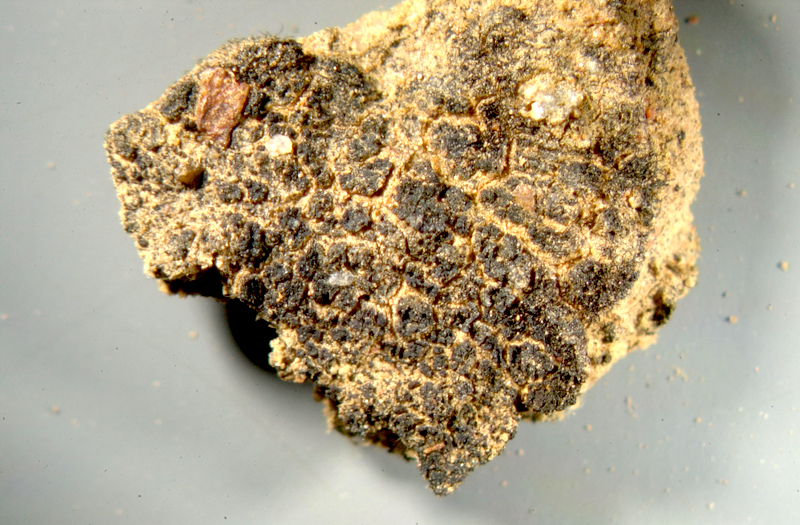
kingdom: Fungi
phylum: Ascomycota
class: Lichinomycetes
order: Lichinales
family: Lichinaceae
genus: Lichinella
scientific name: Lichinella stipatula
